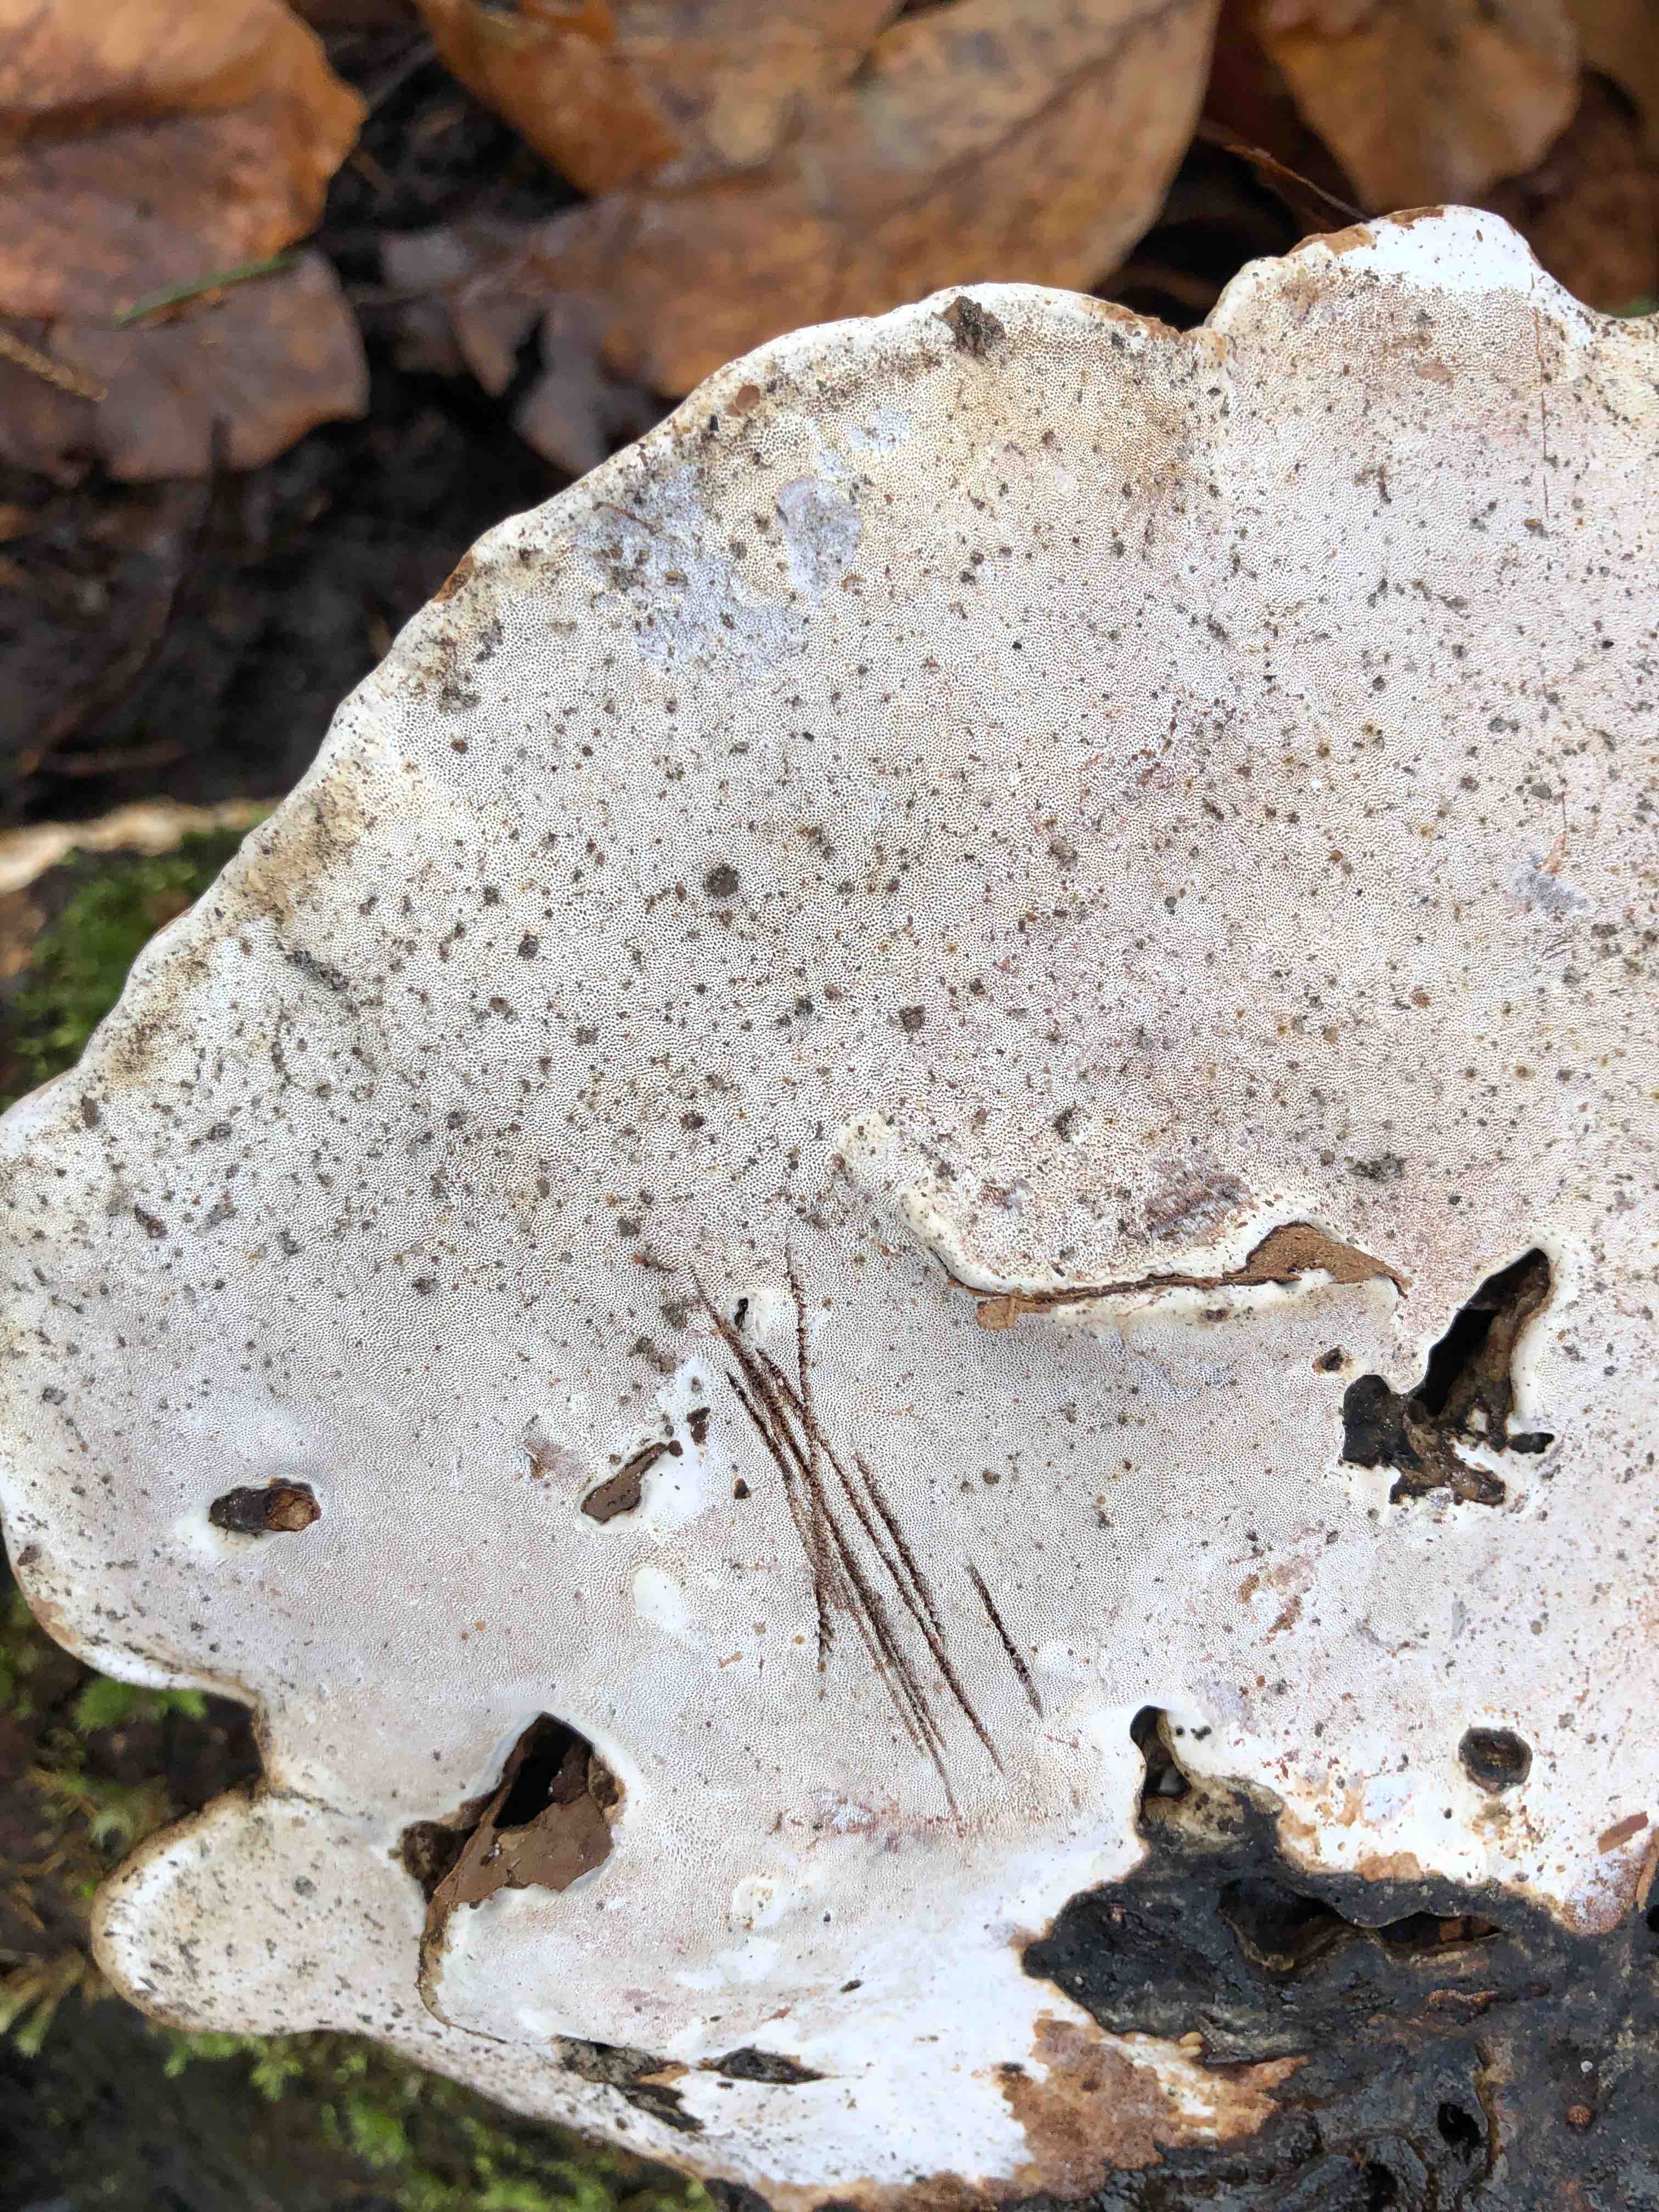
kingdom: Fungi
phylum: Basidiomycota
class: Agaricomycetes
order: Polyporales
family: Polyporaceae
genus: Ganoderma
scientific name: Ganoderma applanatum
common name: flad lakporesvamp
